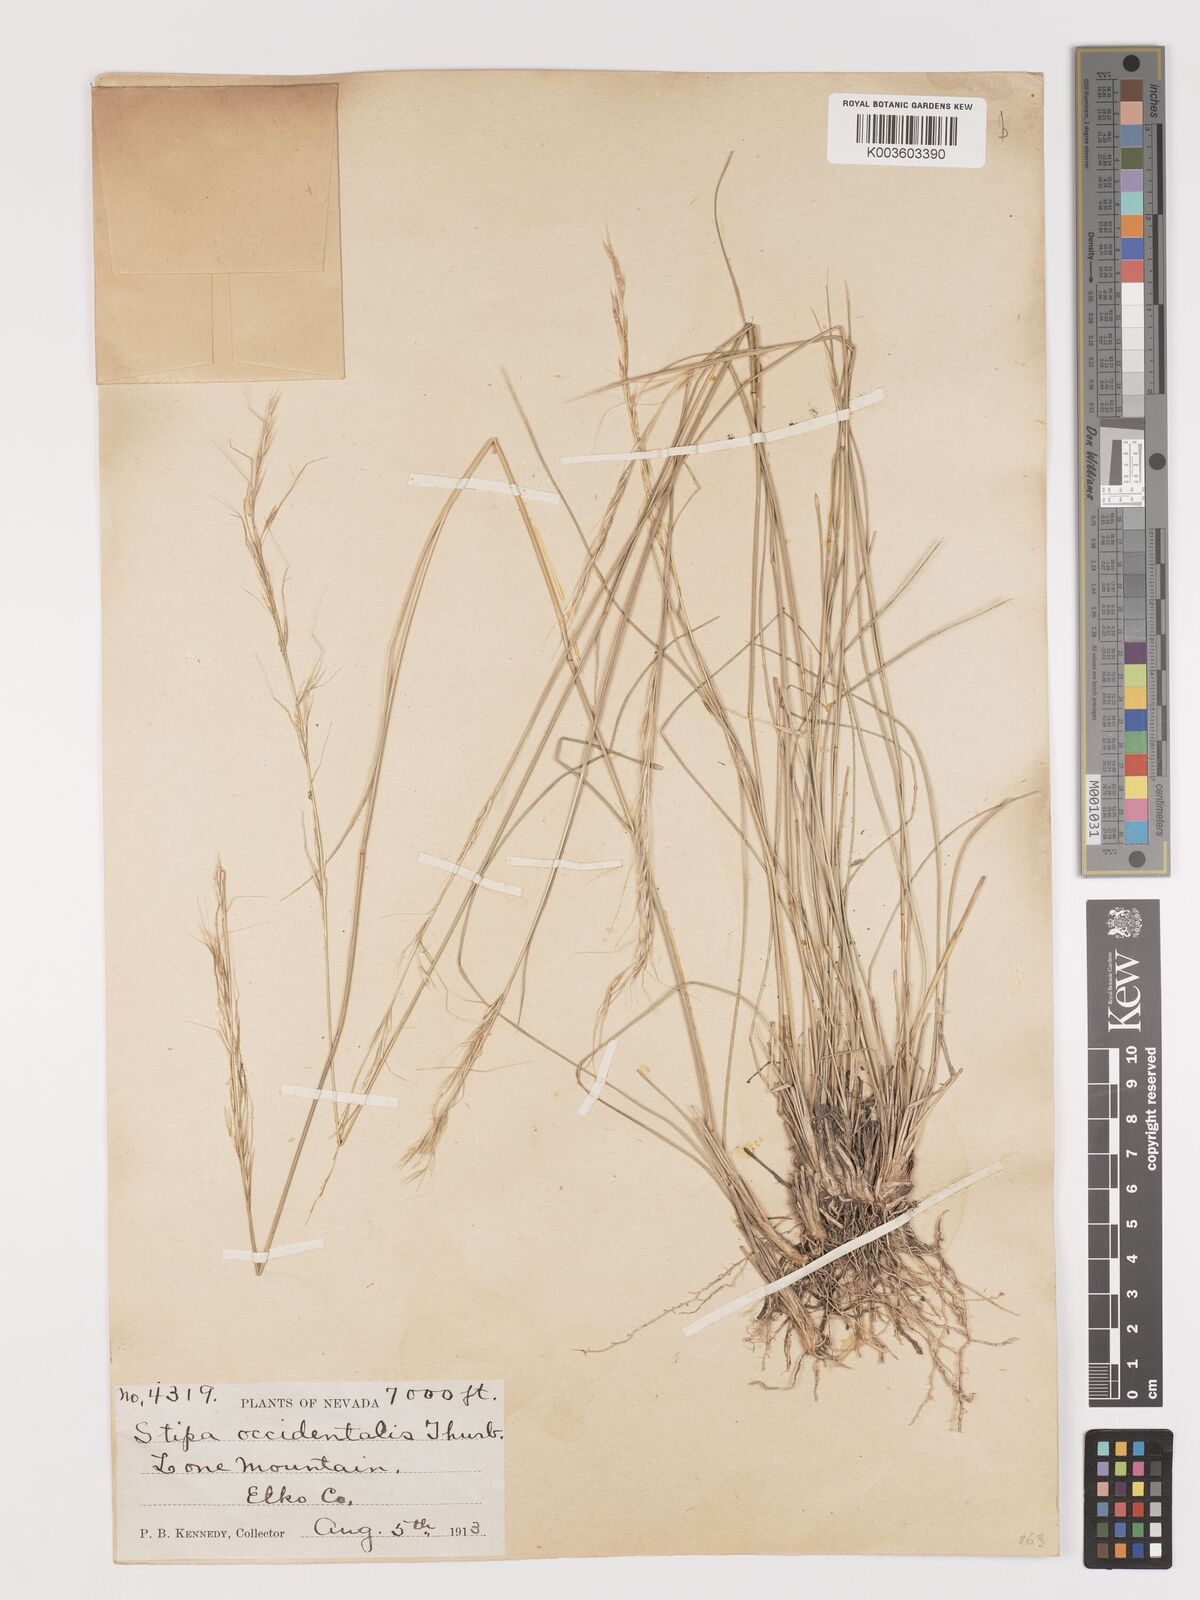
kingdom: Plantae
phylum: Tracheophyta
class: Liliopsida
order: Poales
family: Poaceae
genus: Eriocoma
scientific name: Eriocoma thurberiana
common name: Thurber's needlegrass
